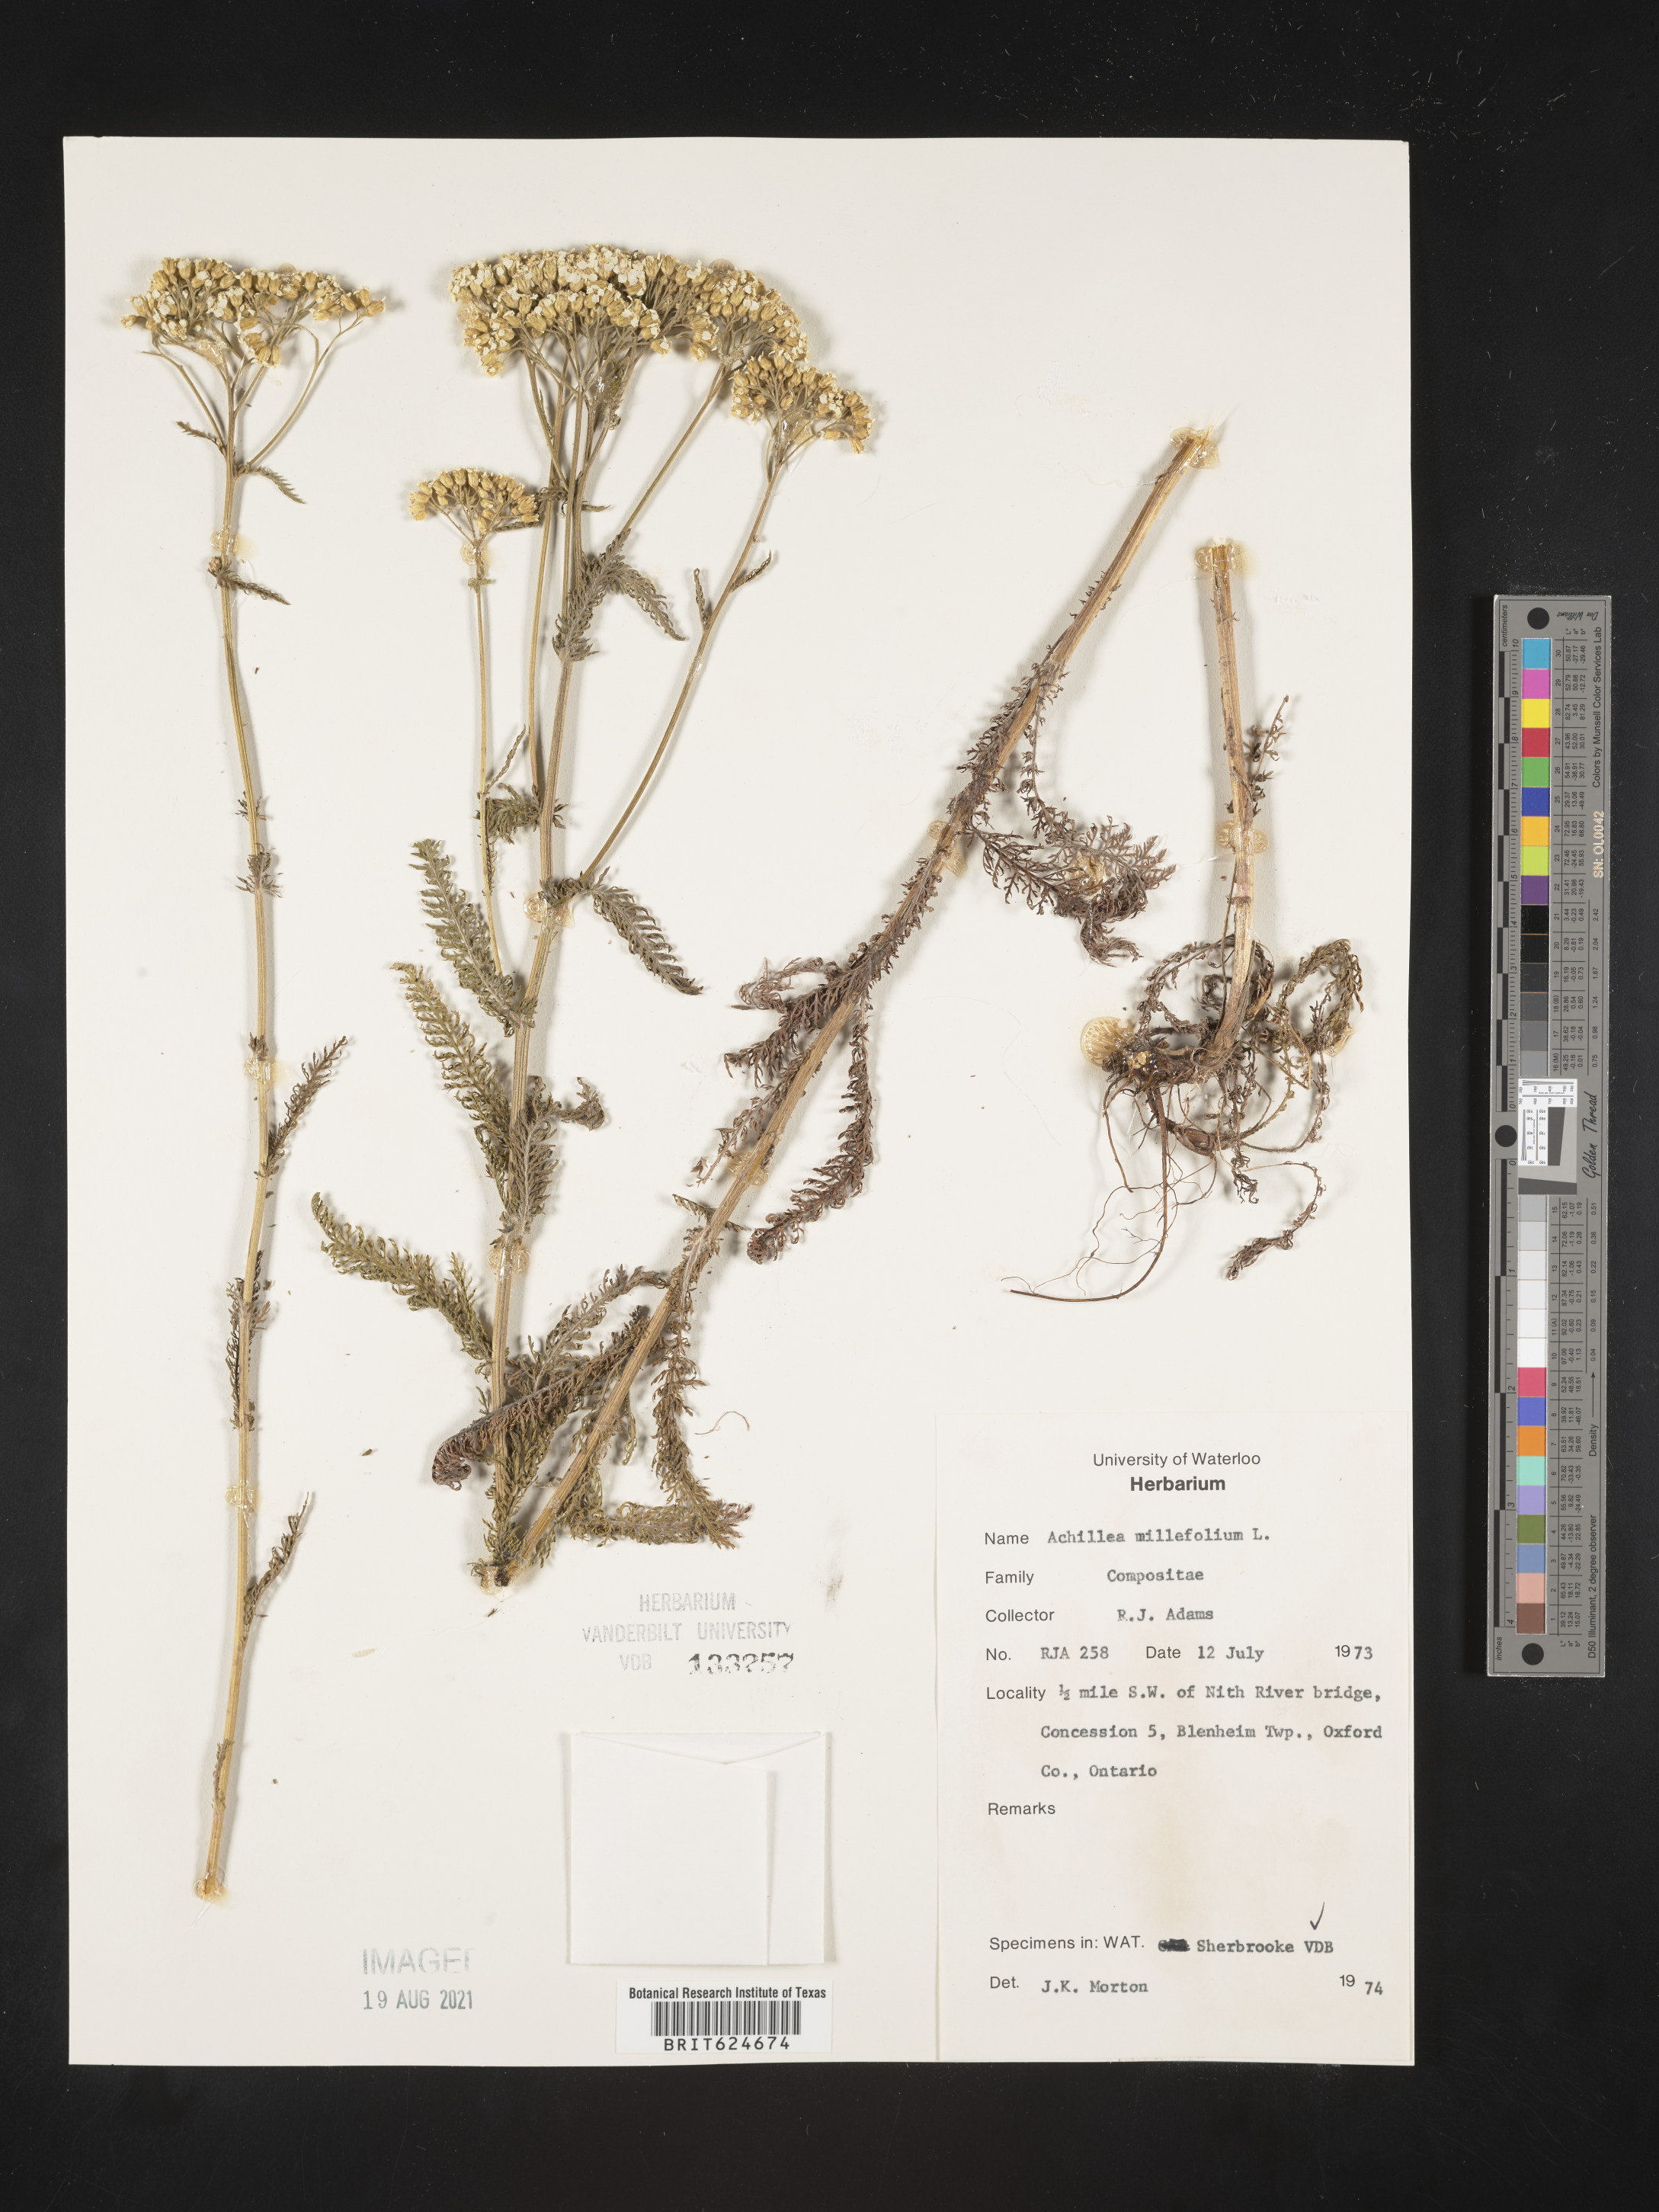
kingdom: Plantae
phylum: Tracheophyta
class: Magnoliopsida
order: Asterales
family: Asteraceae
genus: Achillea
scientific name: Achillea millefolium
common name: Yarrow
